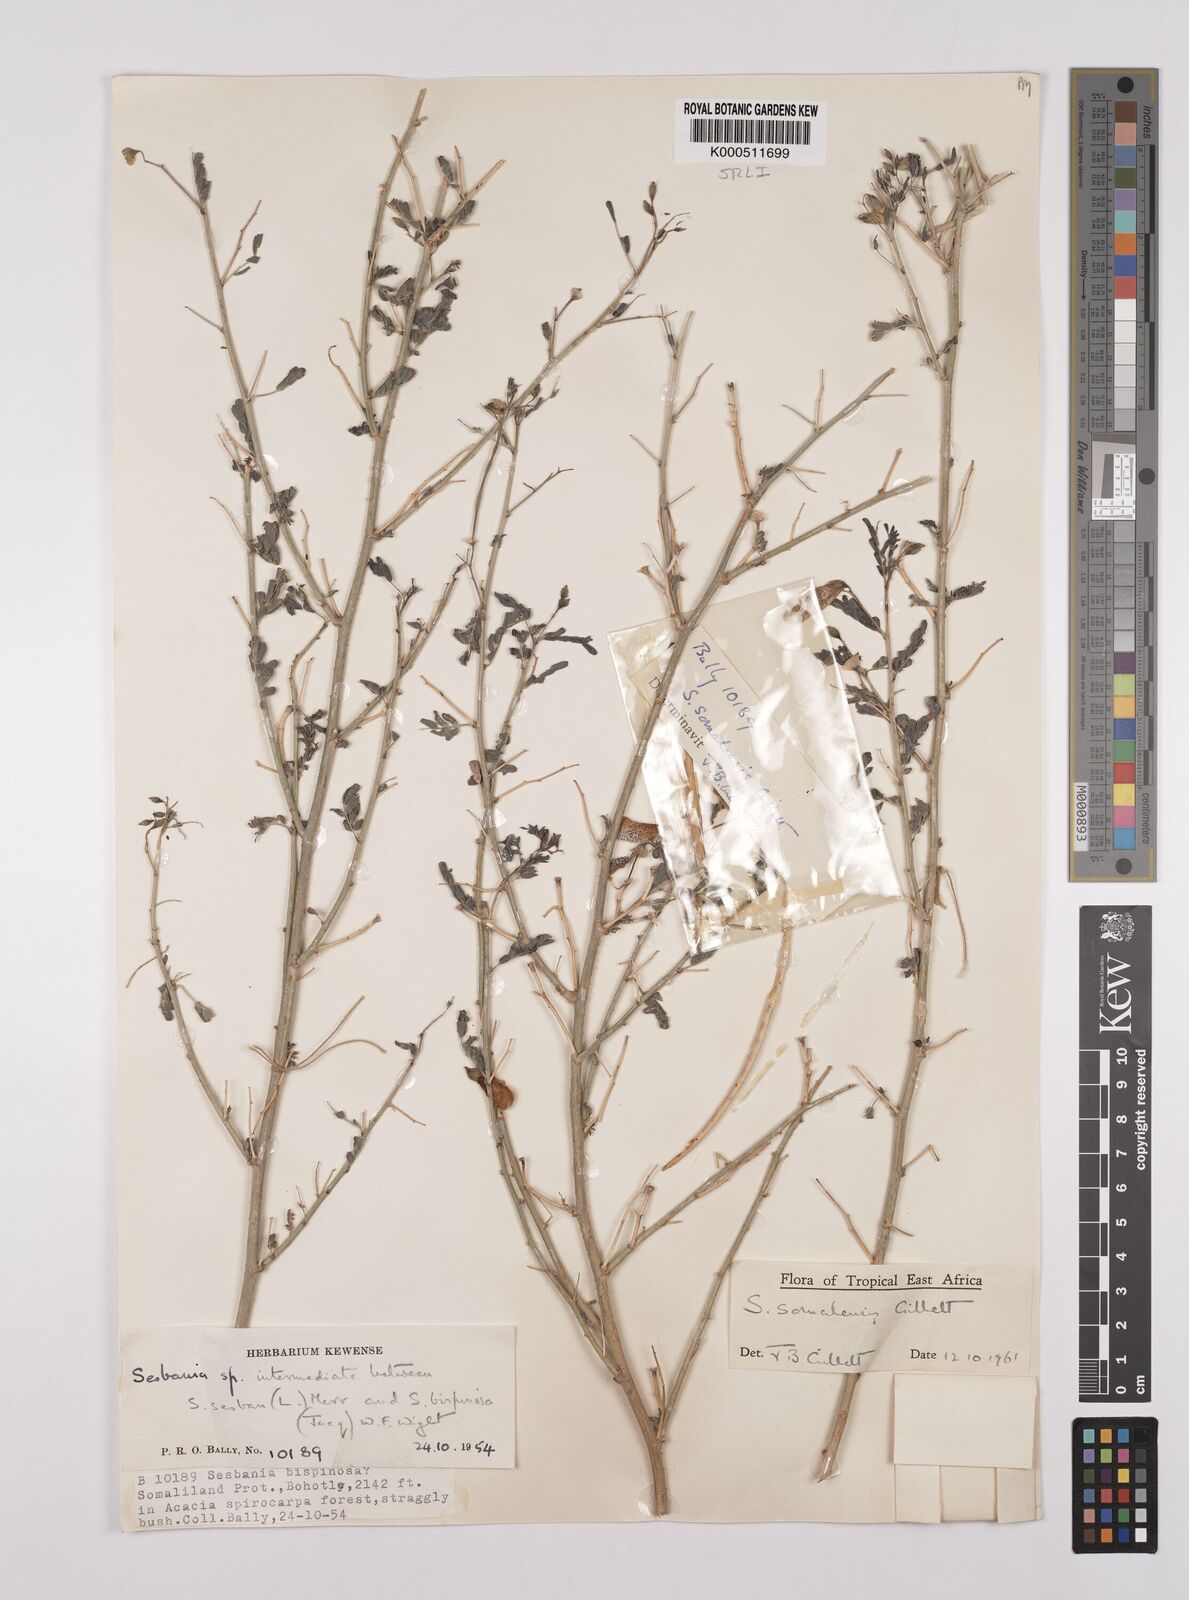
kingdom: Plantae
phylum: Tracheophyta
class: Magnoliopsida
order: Fabales
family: Fabaceae
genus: Sesbania
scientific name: Sesbania somalensis
